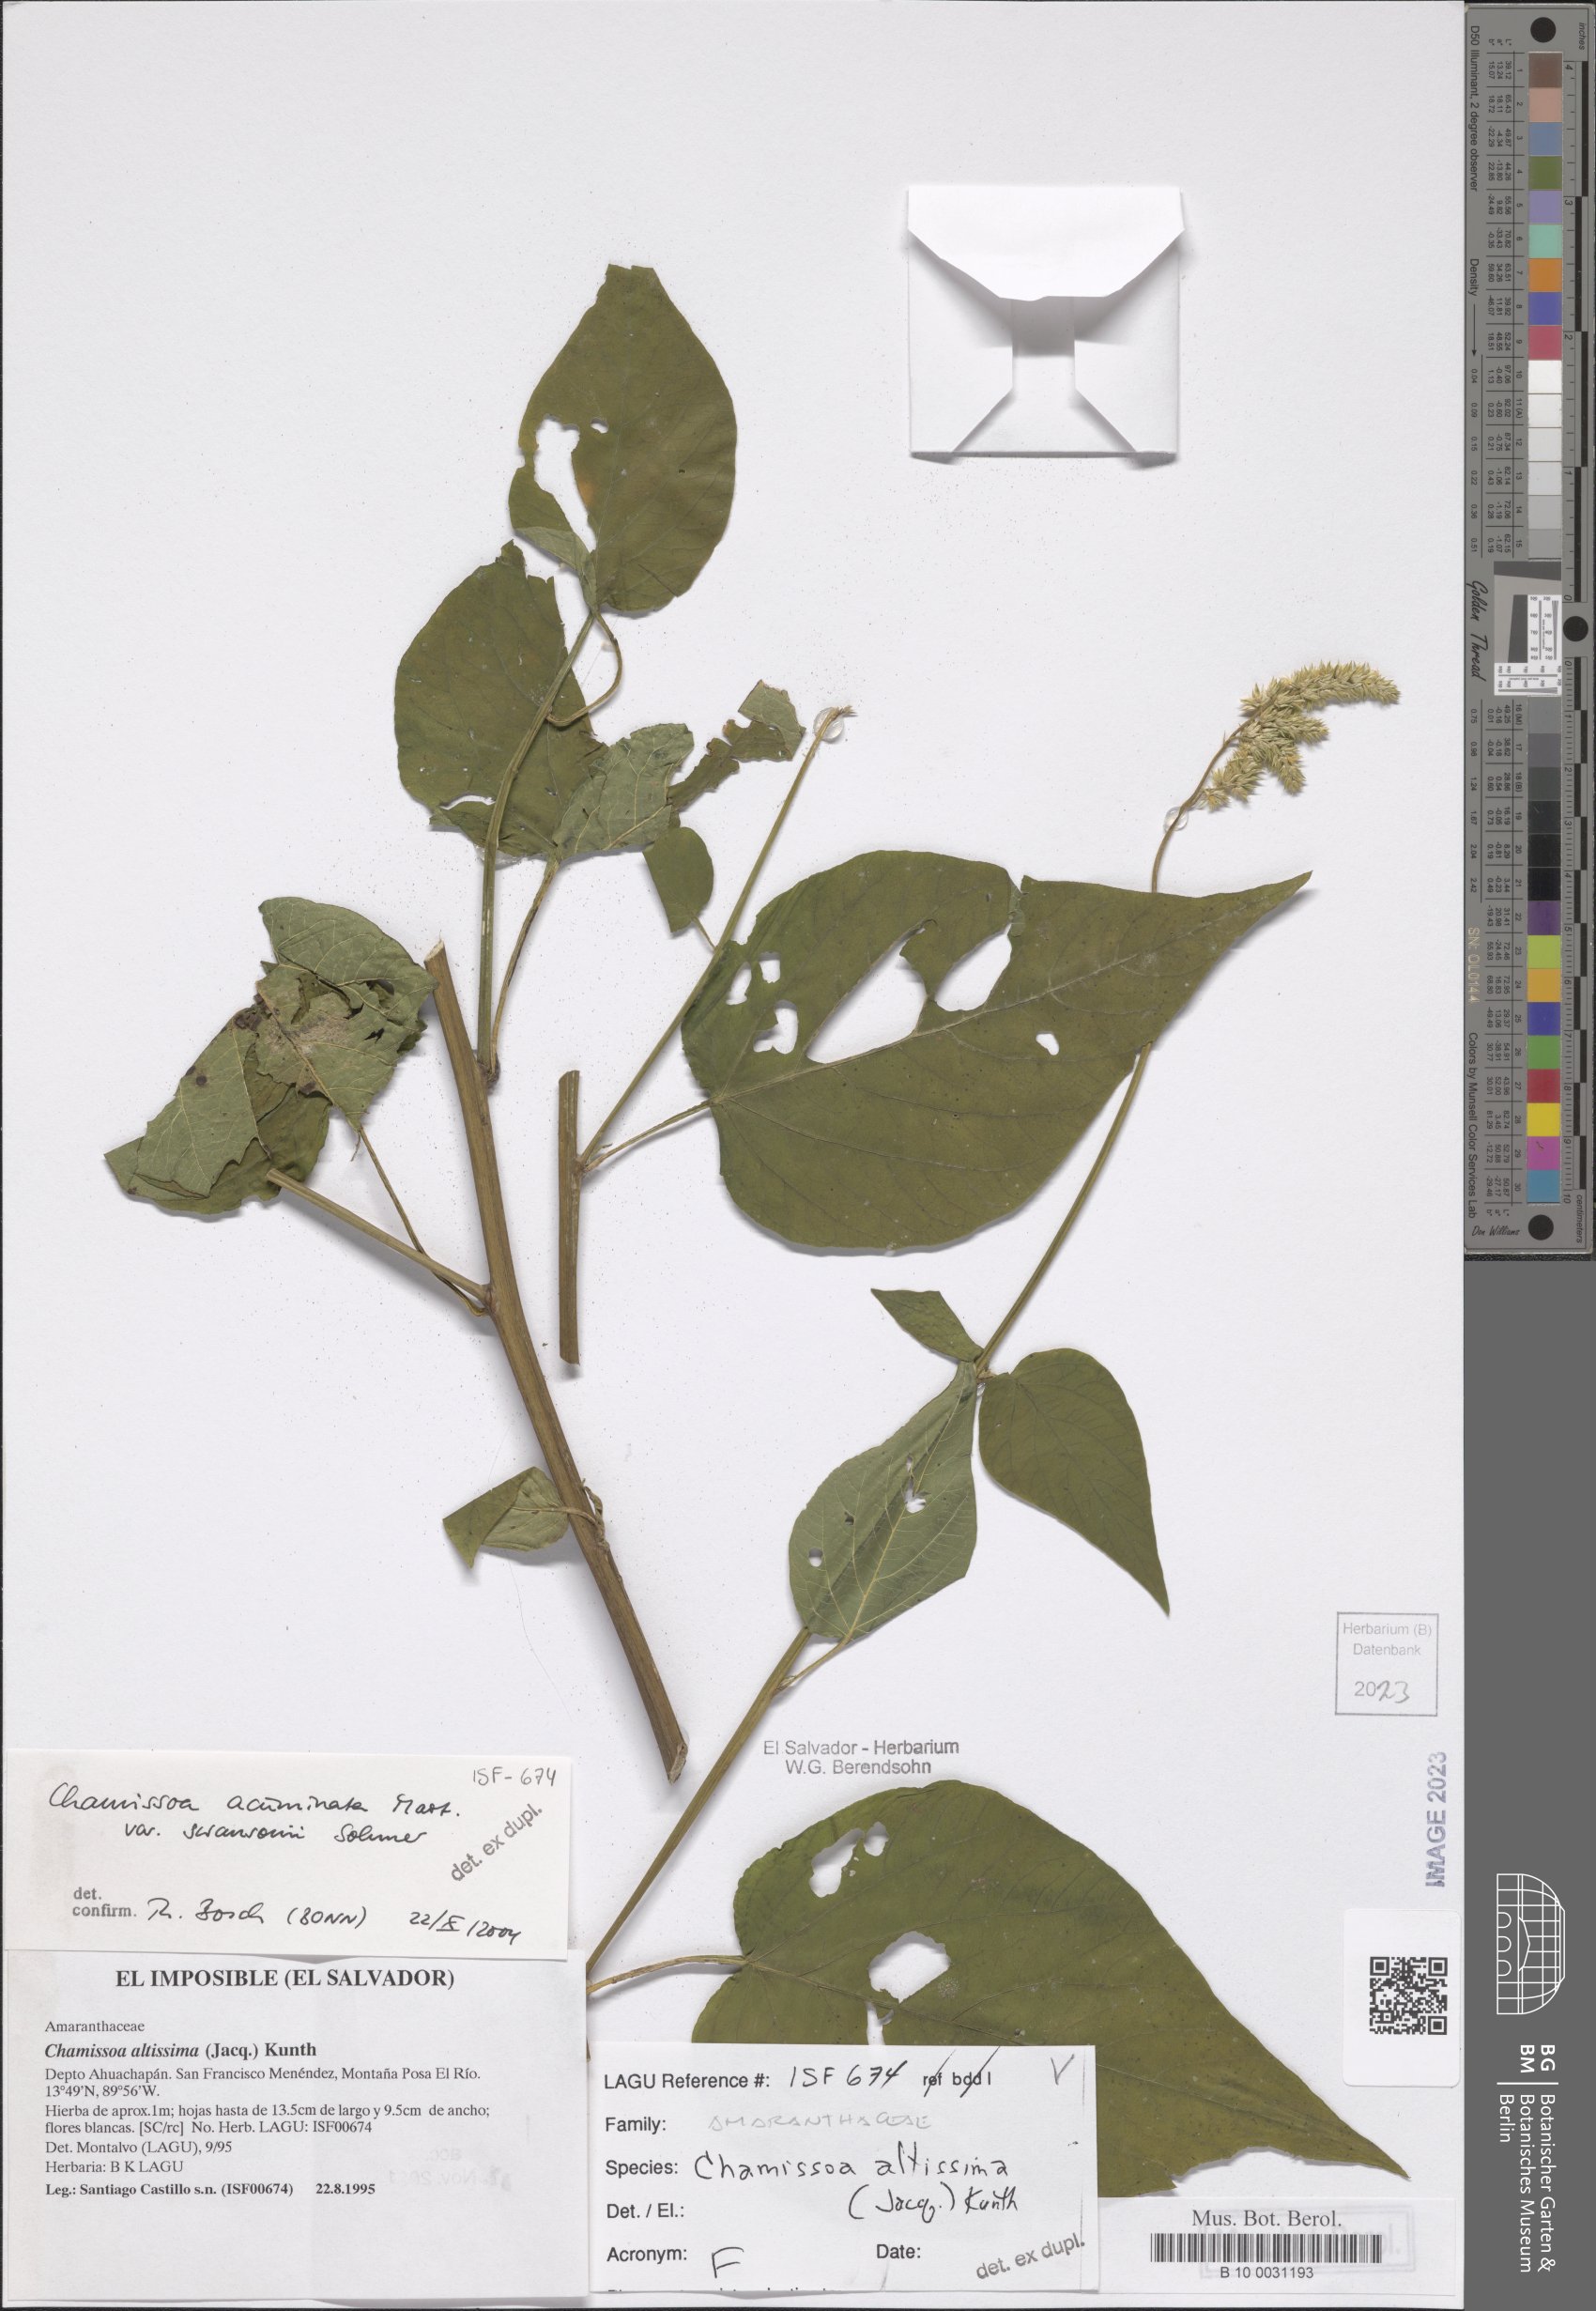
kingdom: Plantae
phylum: Tracheophyta
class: Magnoliopsida
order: Caryophyllales
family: Amaranthaceae
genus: Chamissoa
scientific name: Chamissoa altissima
